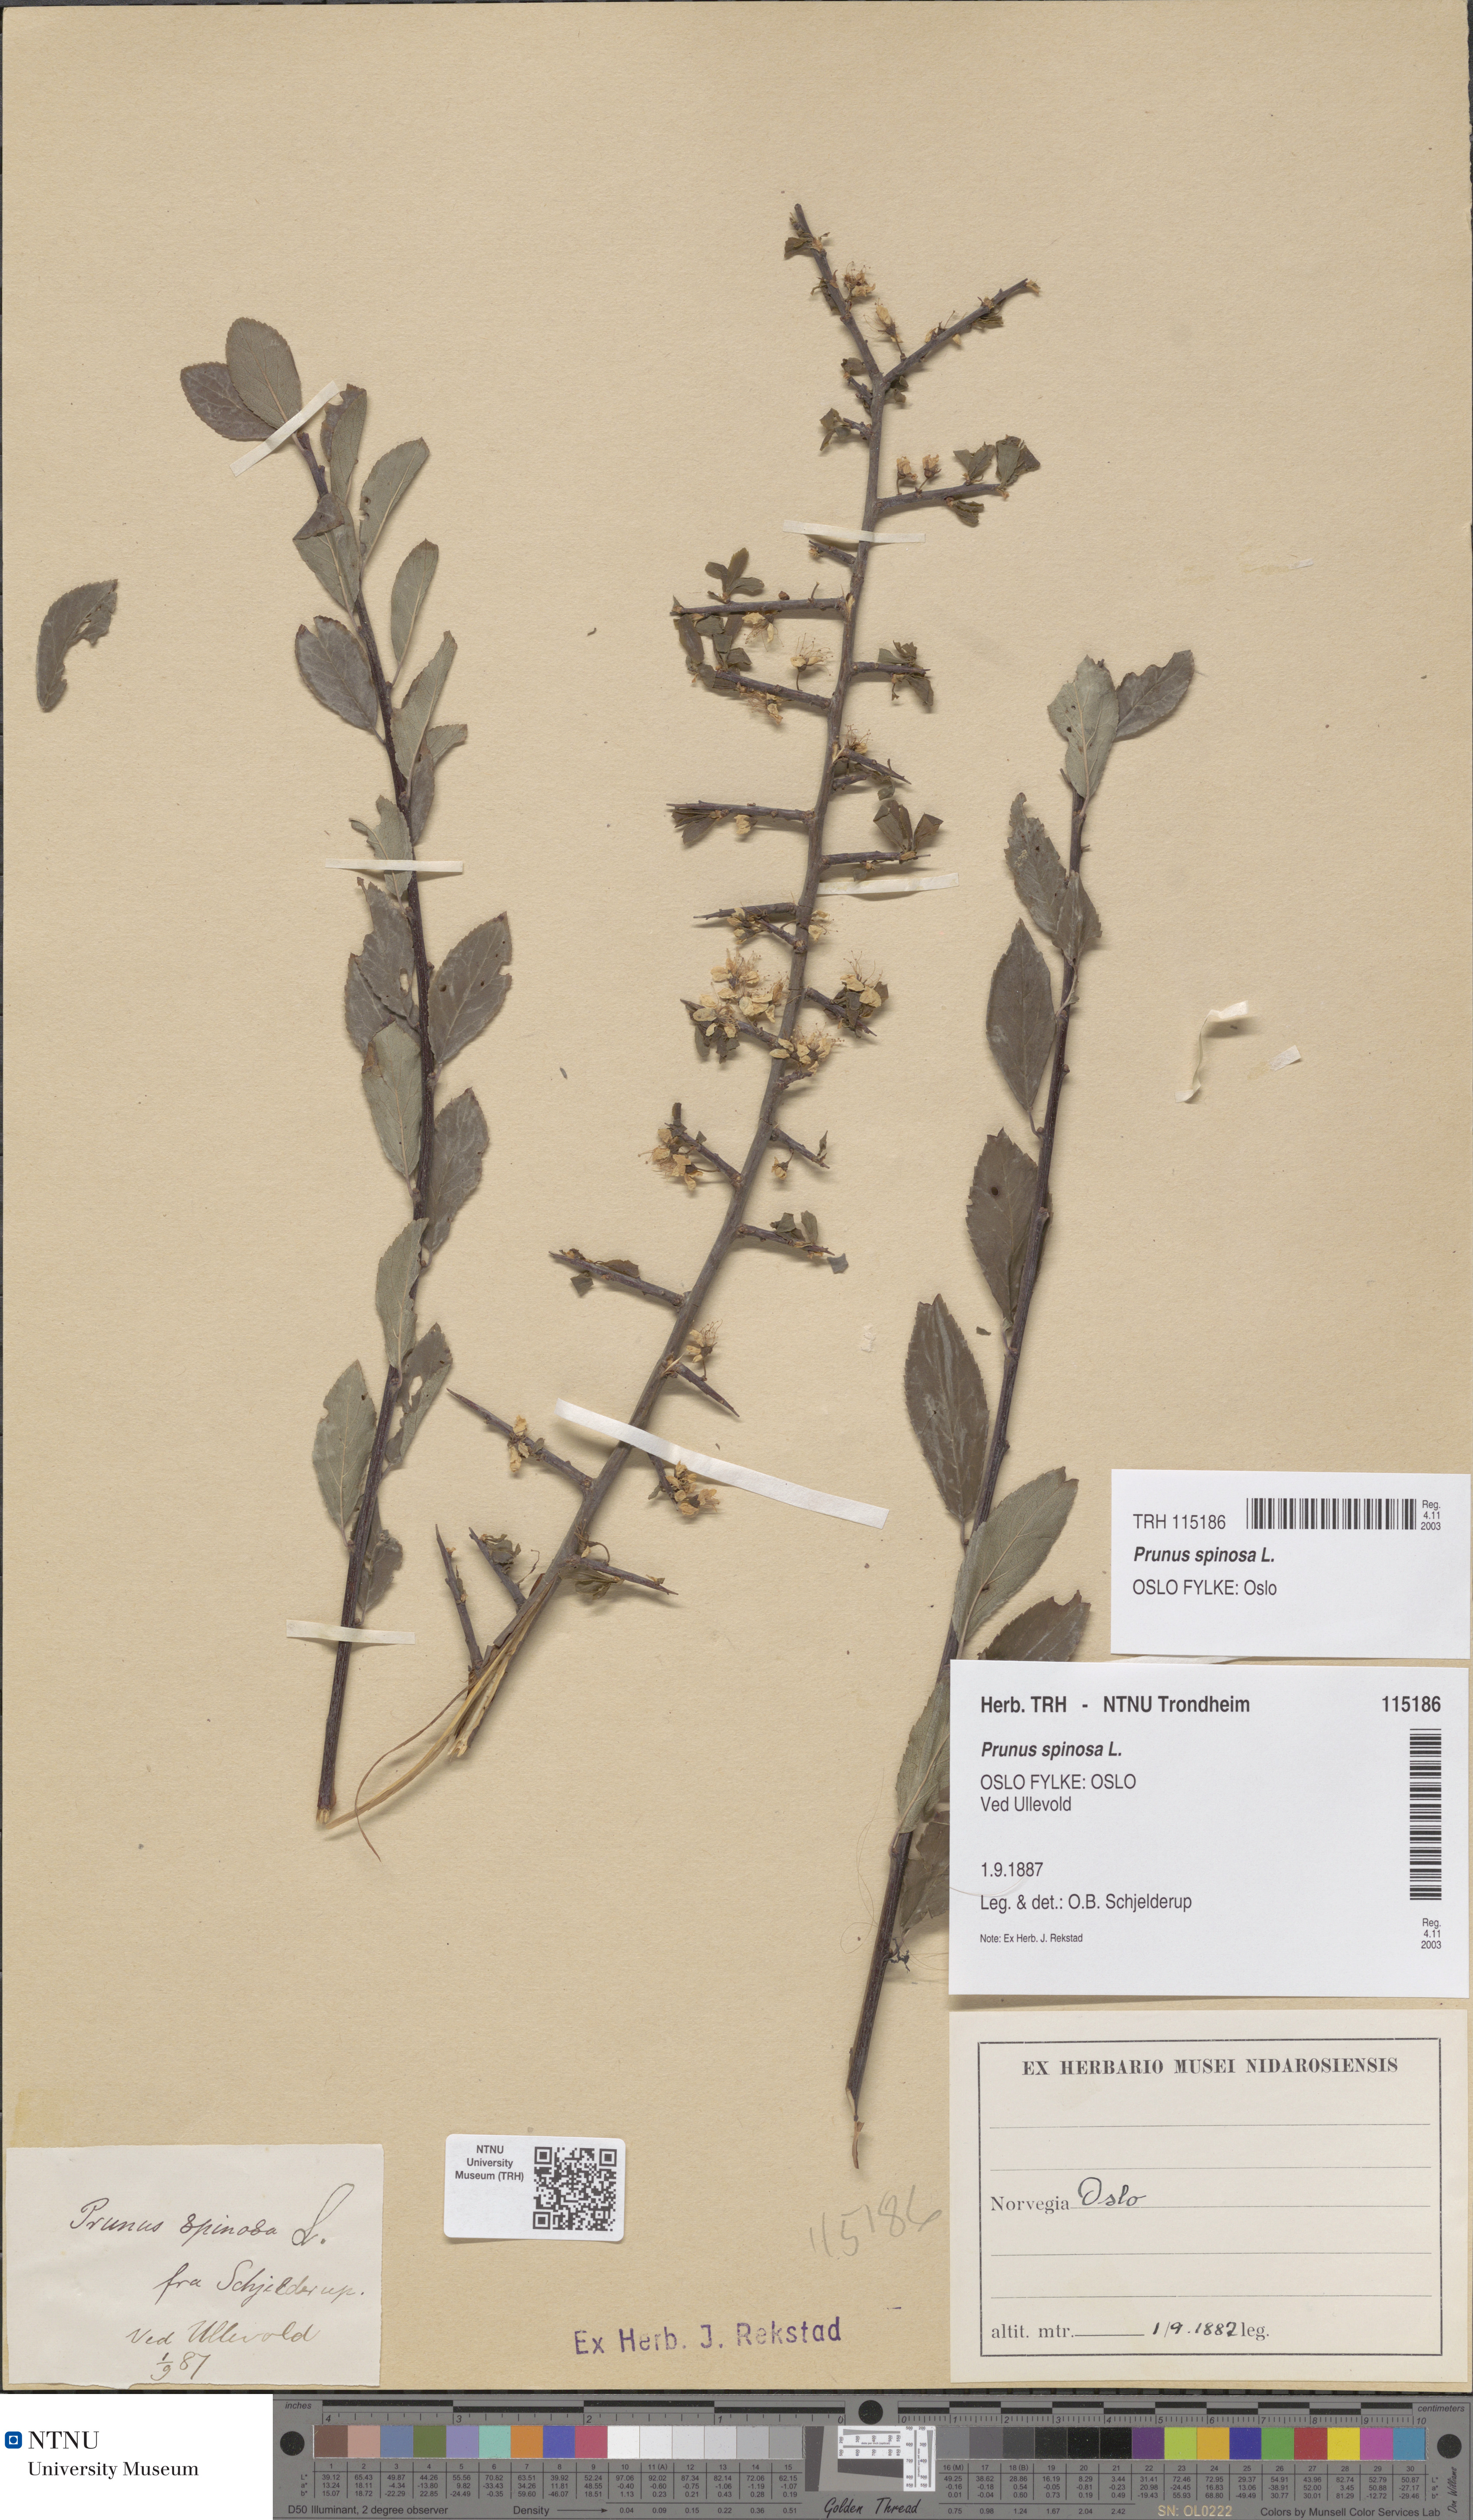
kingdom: Plantae
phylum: Tracheophyta
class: Magnoliopsida
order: Rosales
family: Rosaceae
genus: Prunus
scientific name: Prunus spinosa
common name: Blackthorn
